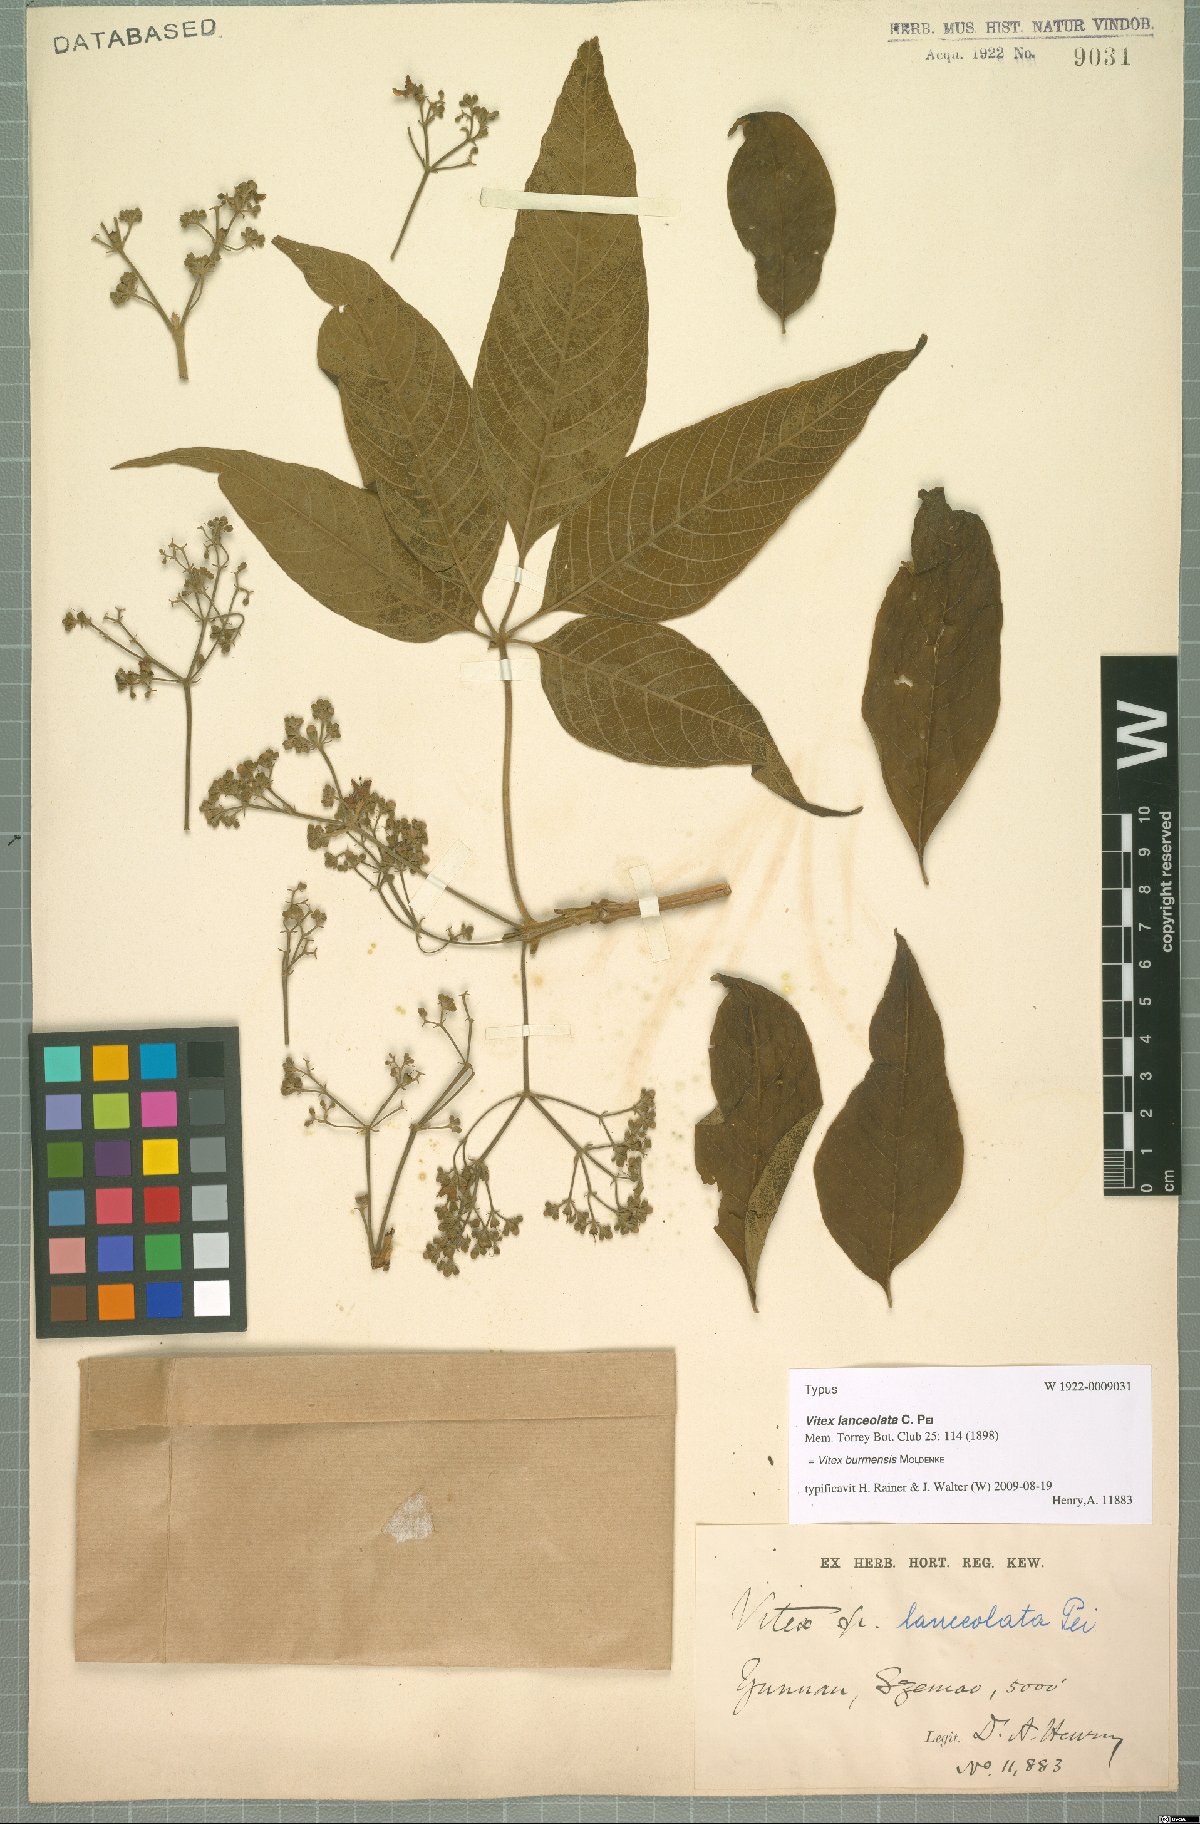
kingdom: Plantae
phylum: Tracheophyta
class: Magnoliopsida
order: Lamiales
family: Lamiaceae
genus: Vitex
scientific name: Vitex burmensis
